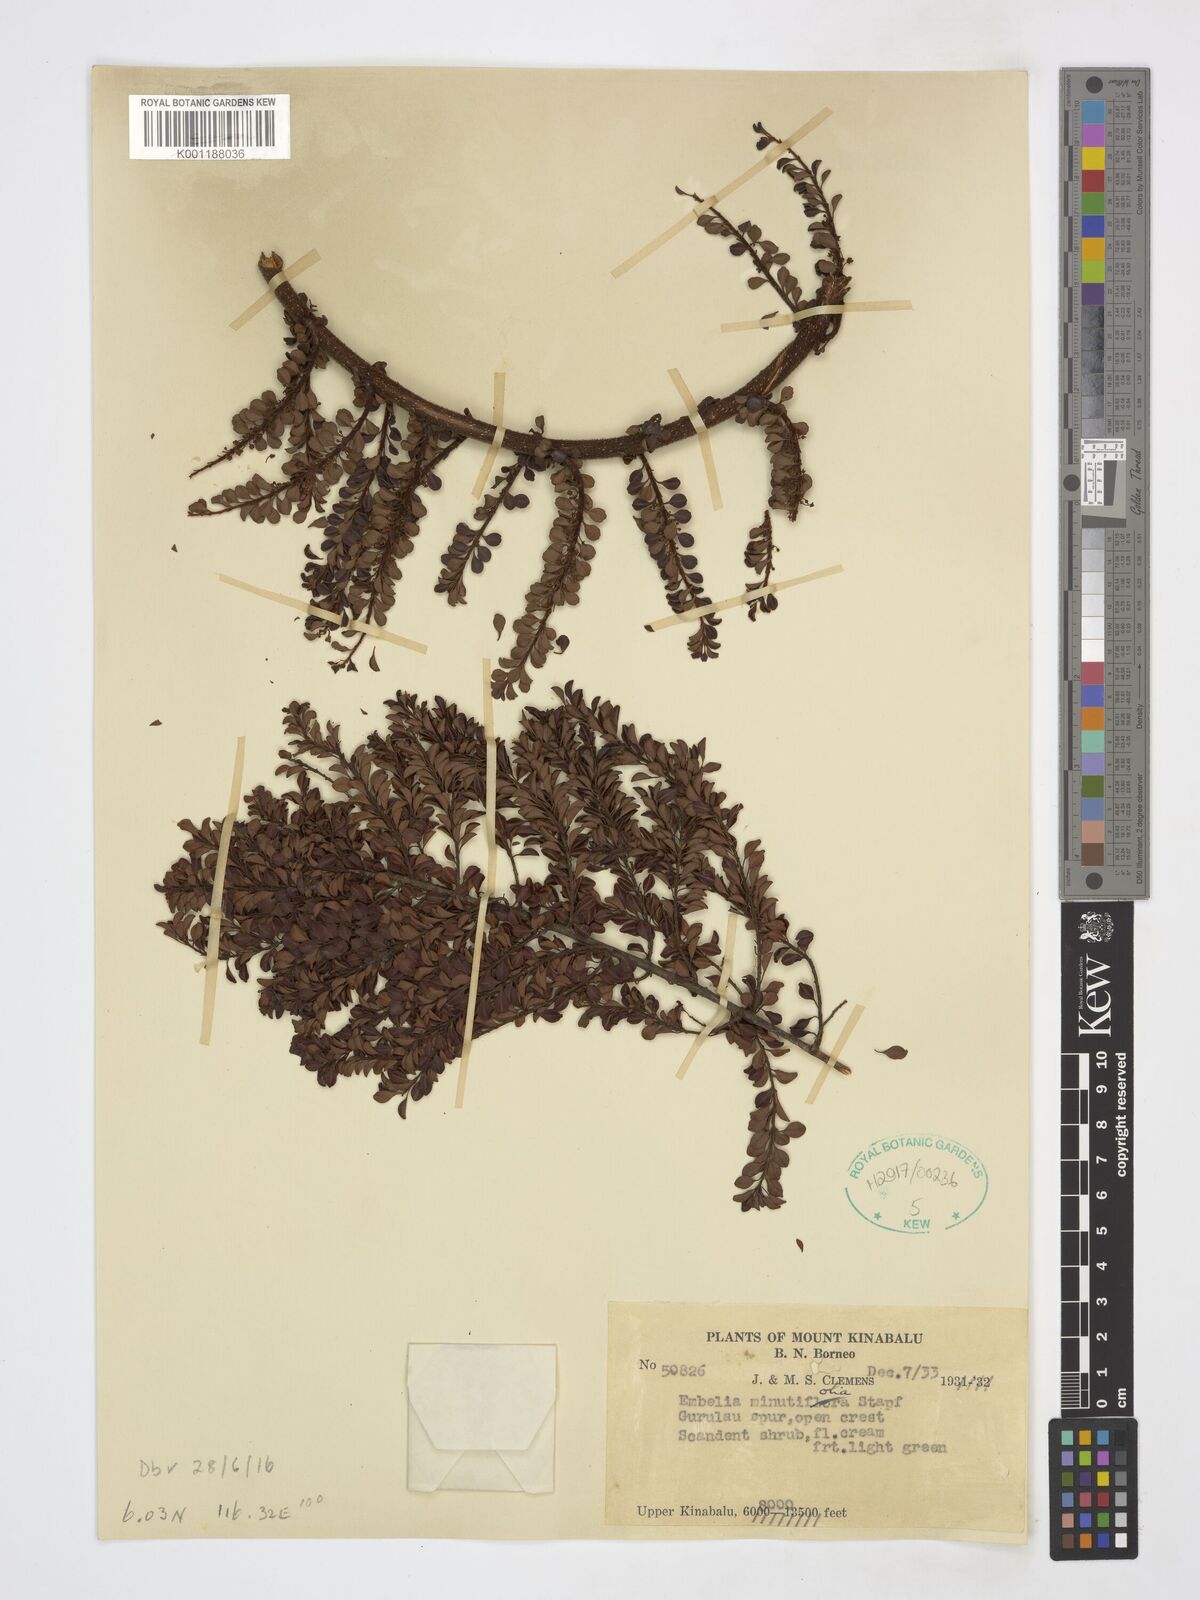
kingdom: Plantae
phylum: Tracheophyta
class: Magnoliopsida
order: Ericales
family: Primulaceae
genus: Embelia
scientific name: Embelia minutifolia
